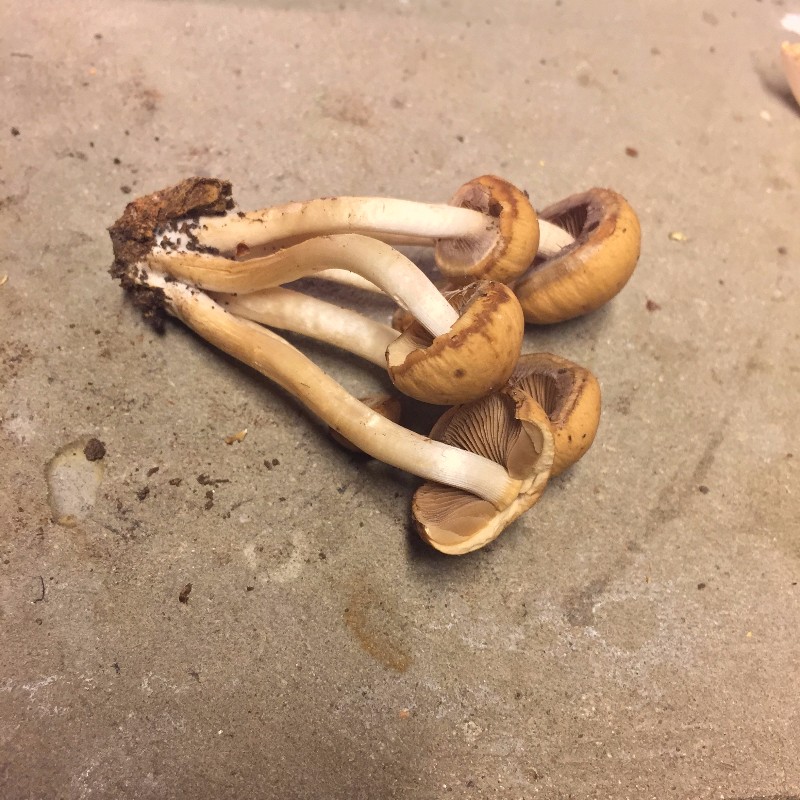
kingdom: Fungi
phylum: Basidiomycota
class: Agaricomycetes
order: Agaricales
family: Psathyrellaceae
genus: Psathyrella
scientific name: Psathyrella piluliformis
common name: lysstokket mørkhat
